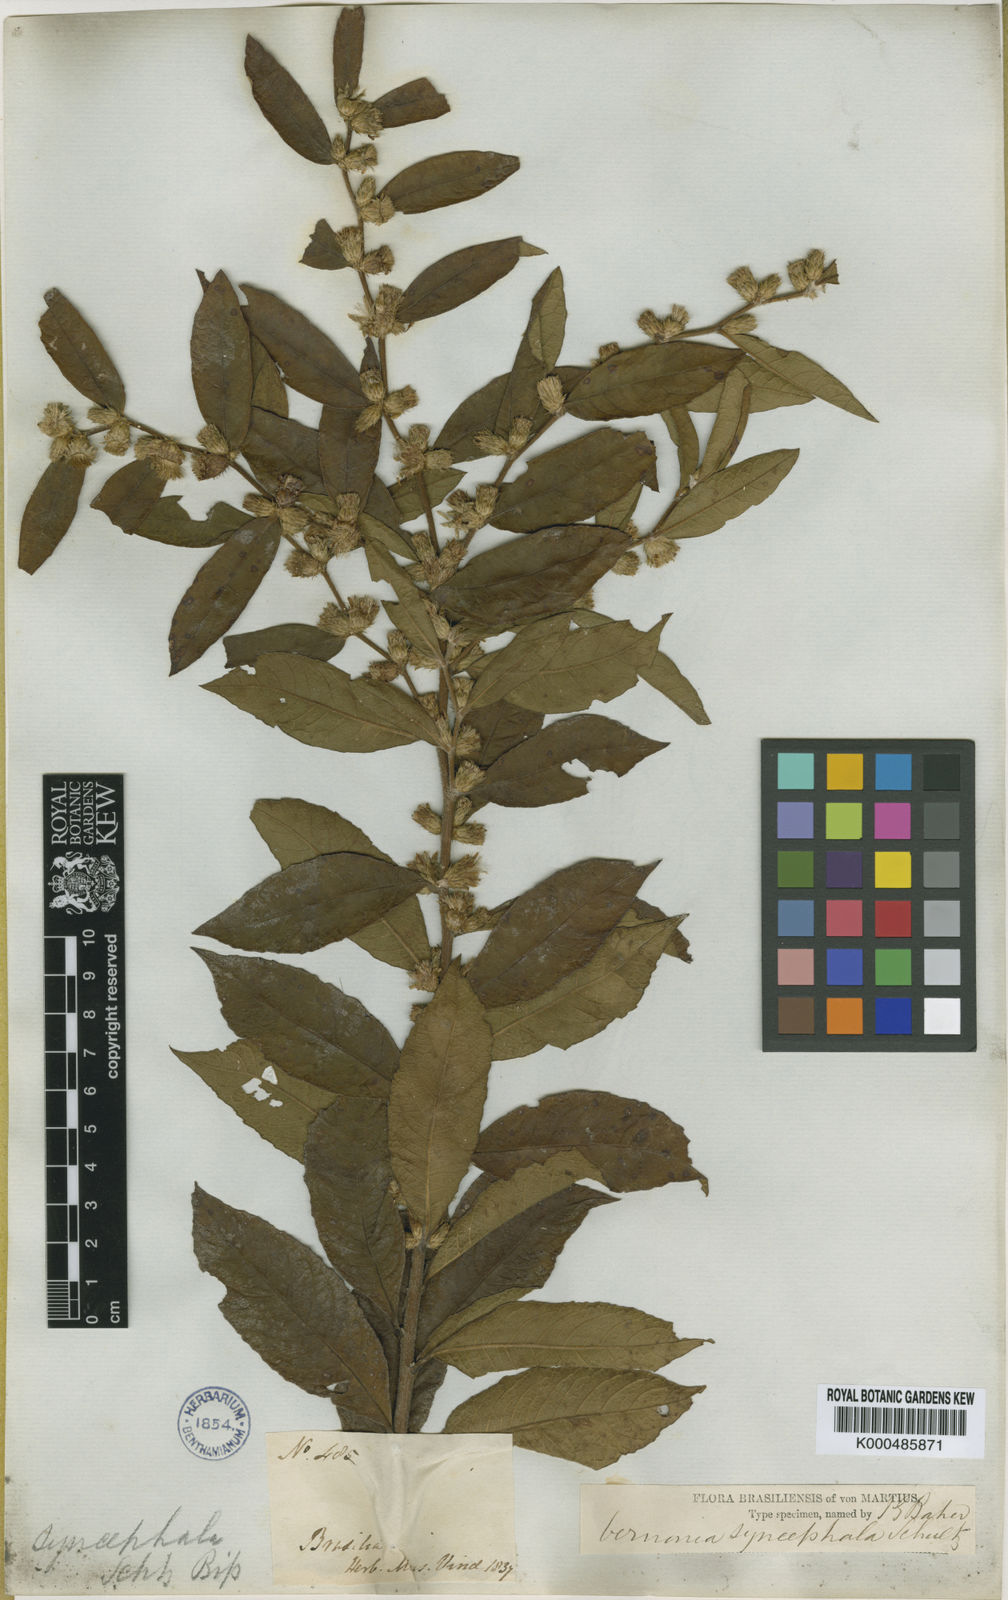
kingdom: Plantae
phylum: Tracheophyta
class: Magnoliopsida
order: Asterales
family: Asteraceae
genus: Lessingianthus
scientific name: Lessingianthus syncephalus
